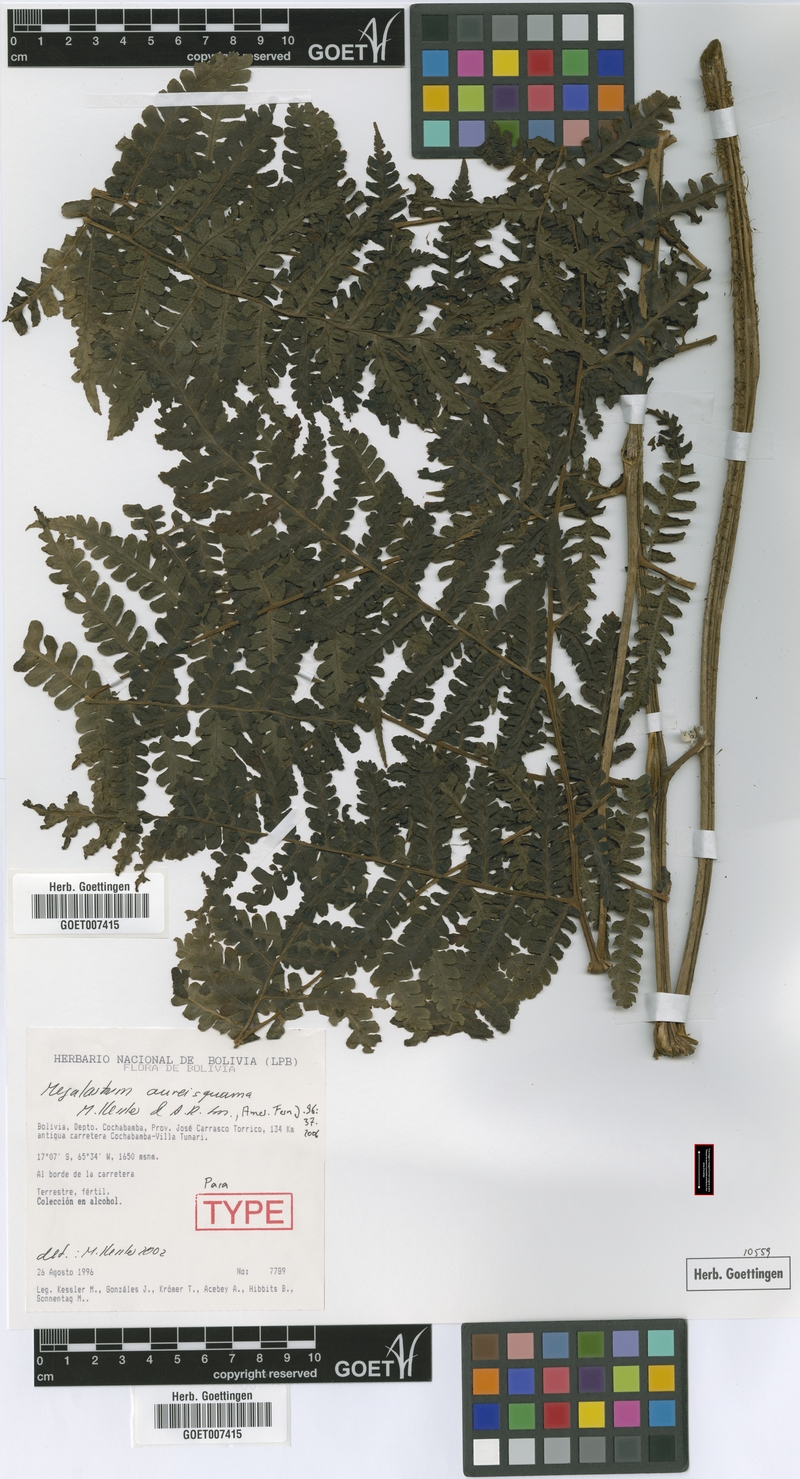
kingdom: Plantae
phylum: Tracheophyta
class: Polypodiopsida
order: Polypodiales
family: Dryopteridaceae
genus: Megalastrum
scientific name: Megalastrum aureisquama
